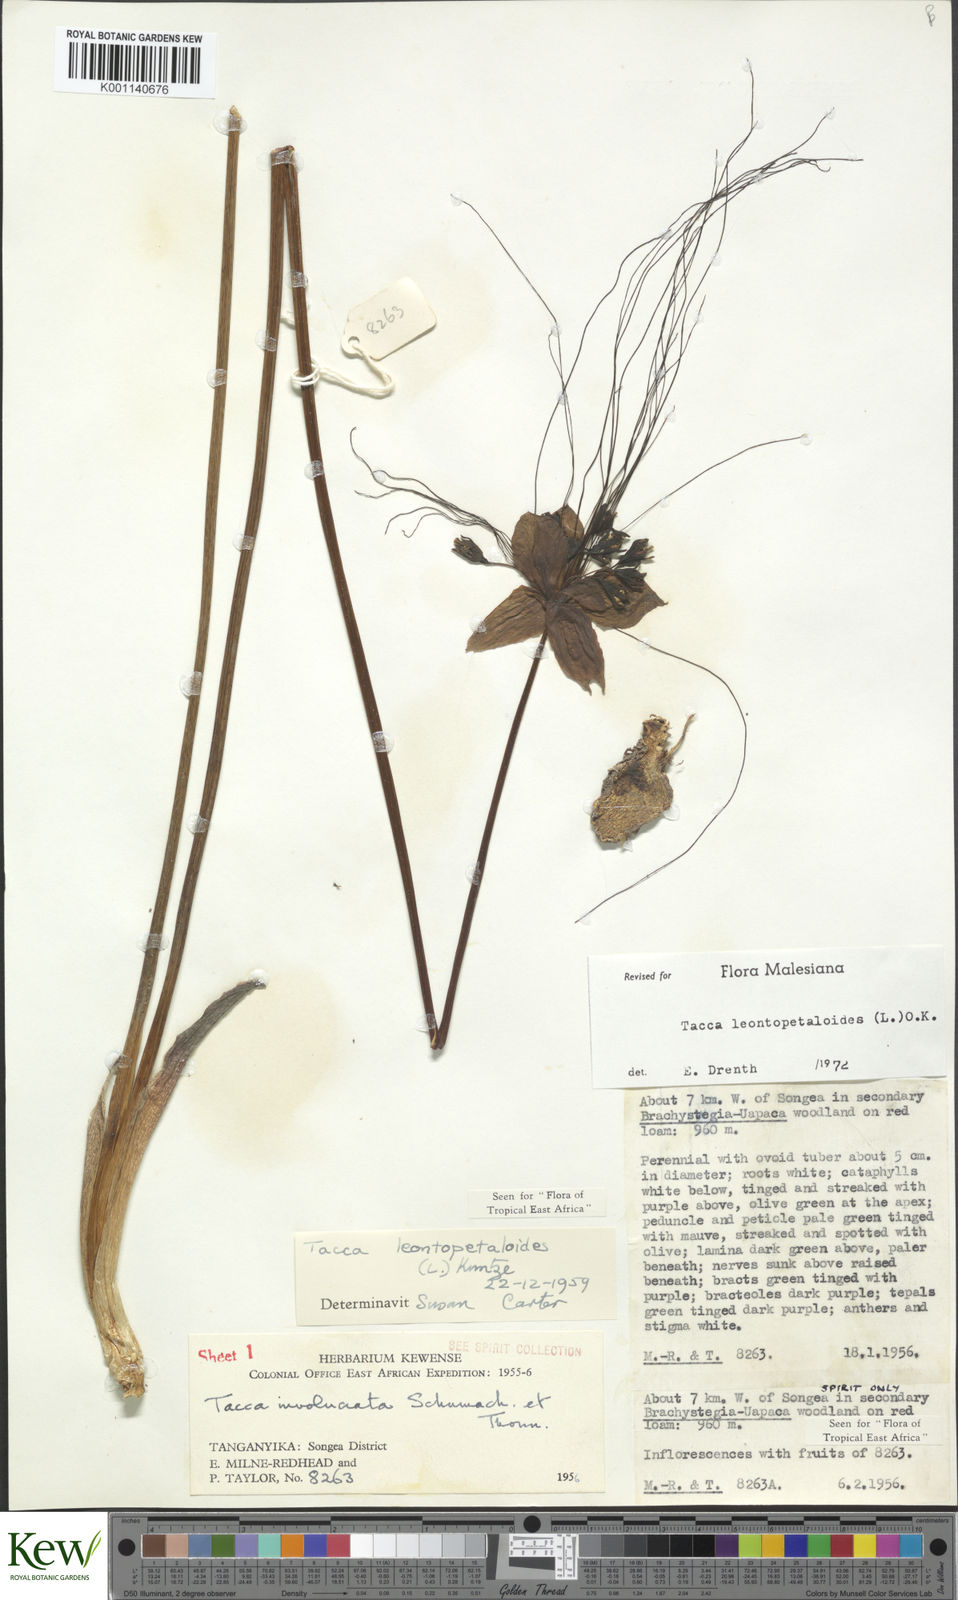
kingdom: Plantae
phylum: Tracheophyta
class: Liliopsida
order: Dioscoreales
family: Dioscoreaceae
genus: Tacca
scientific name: Tacca leontopetaloides
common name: Arrowroot
